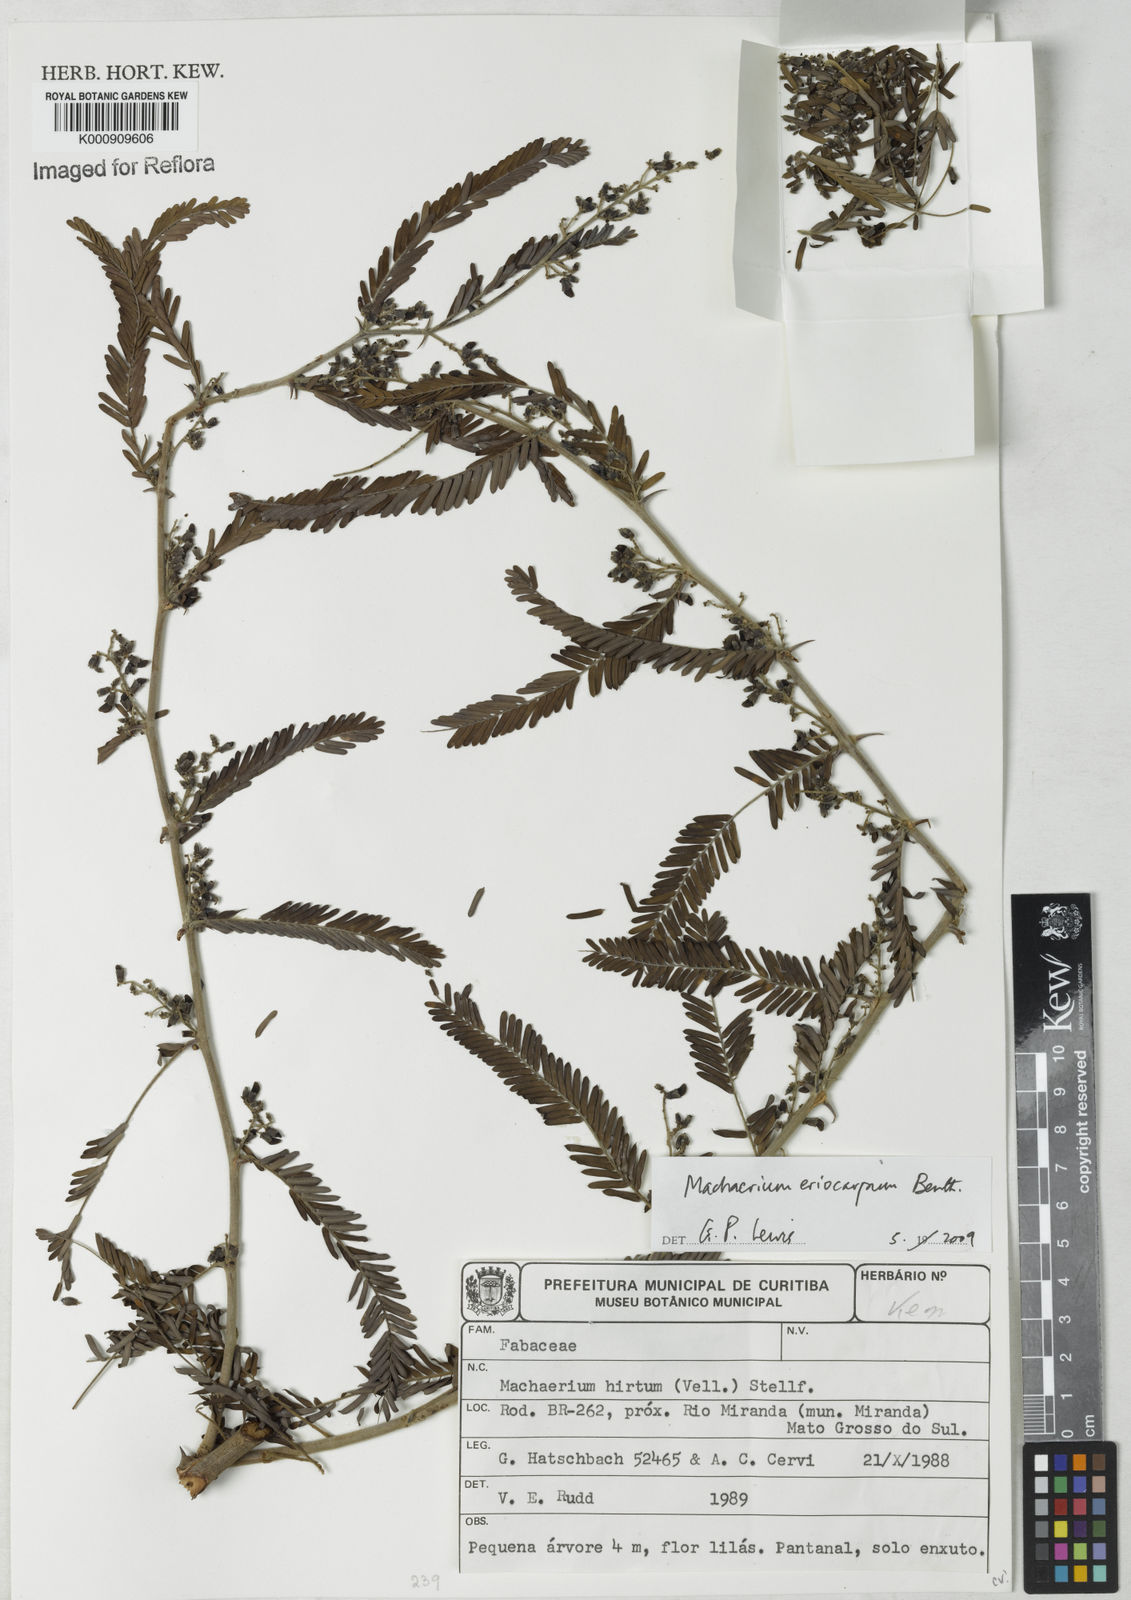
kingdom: Plantae
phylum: Tracheophyta
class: Magnoliopsida
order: Fabales
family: Fabaceae
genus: Machaerium
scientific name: Machaerium eriocarpum
